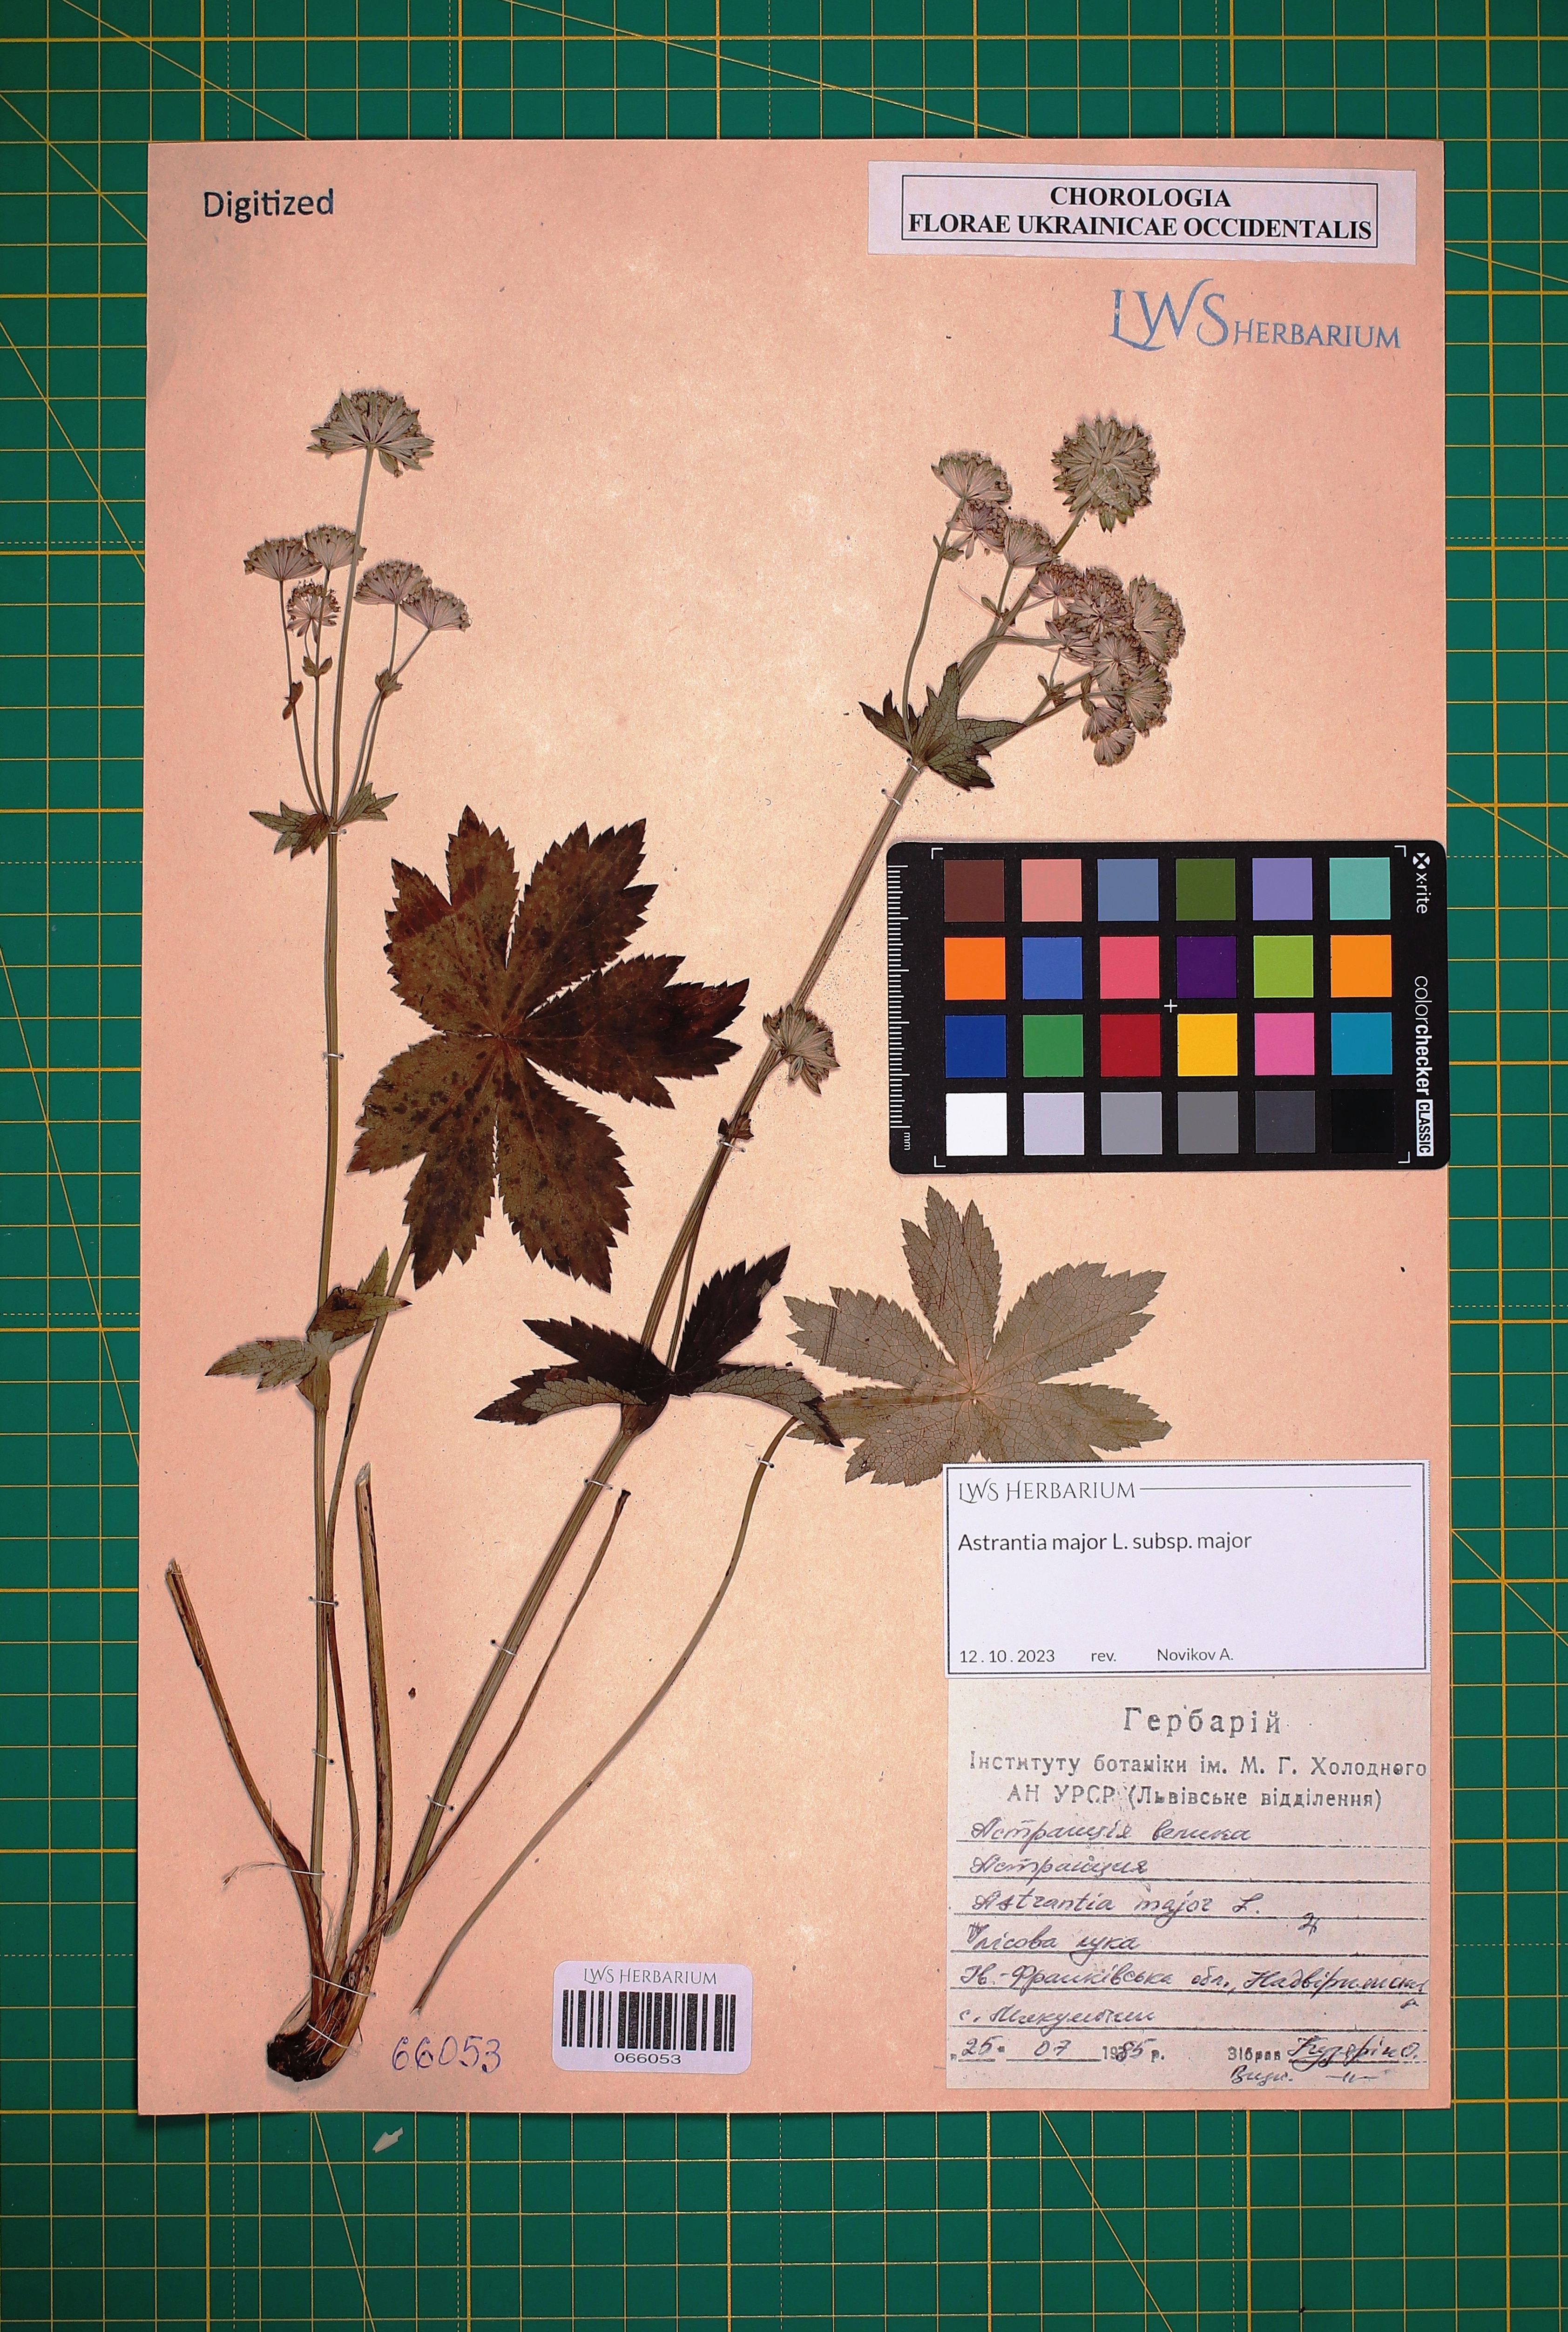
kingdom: Plantae
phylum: Tracheophyta
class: Magnoliopsida
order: Apiales
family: Apiaceae
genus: Astrantia
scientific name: Astrantia major
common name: Greater masterwort
